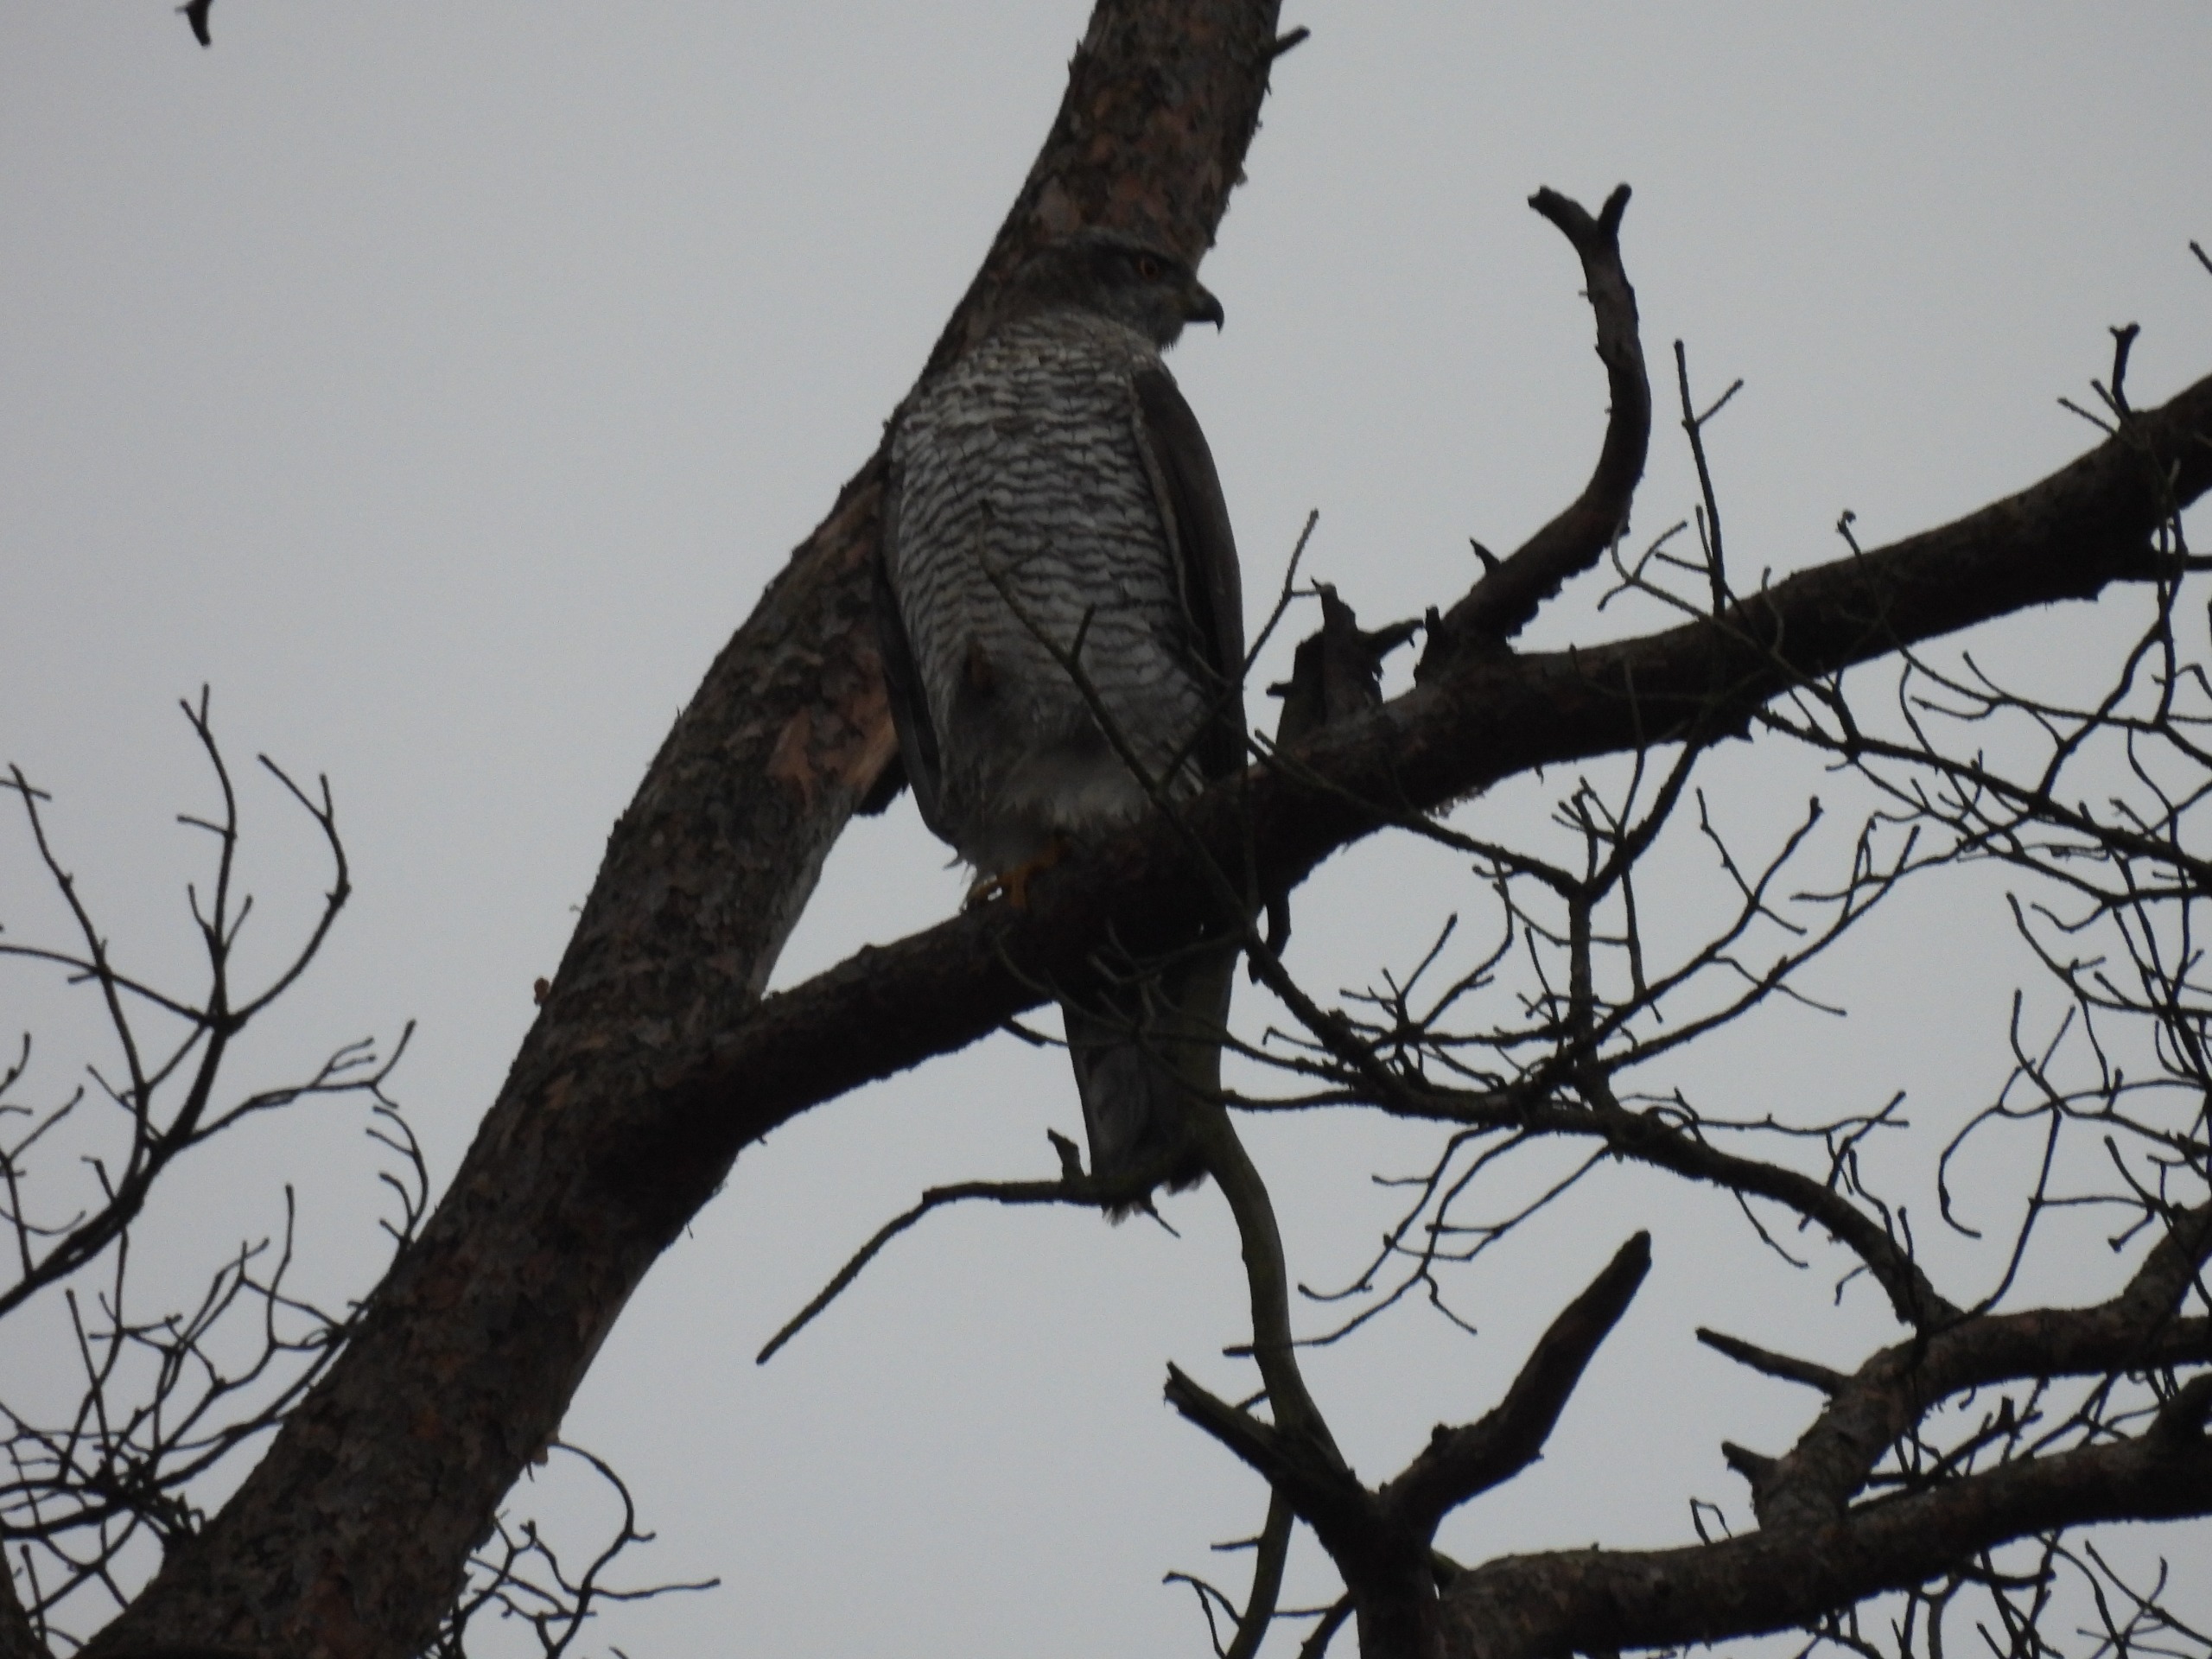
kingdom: Animalia
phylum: Chordata
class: Aves
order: Accipitriformes
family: Accipitridae
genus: Accipiter
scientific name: Accipiter gentilis
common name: Duehøg
